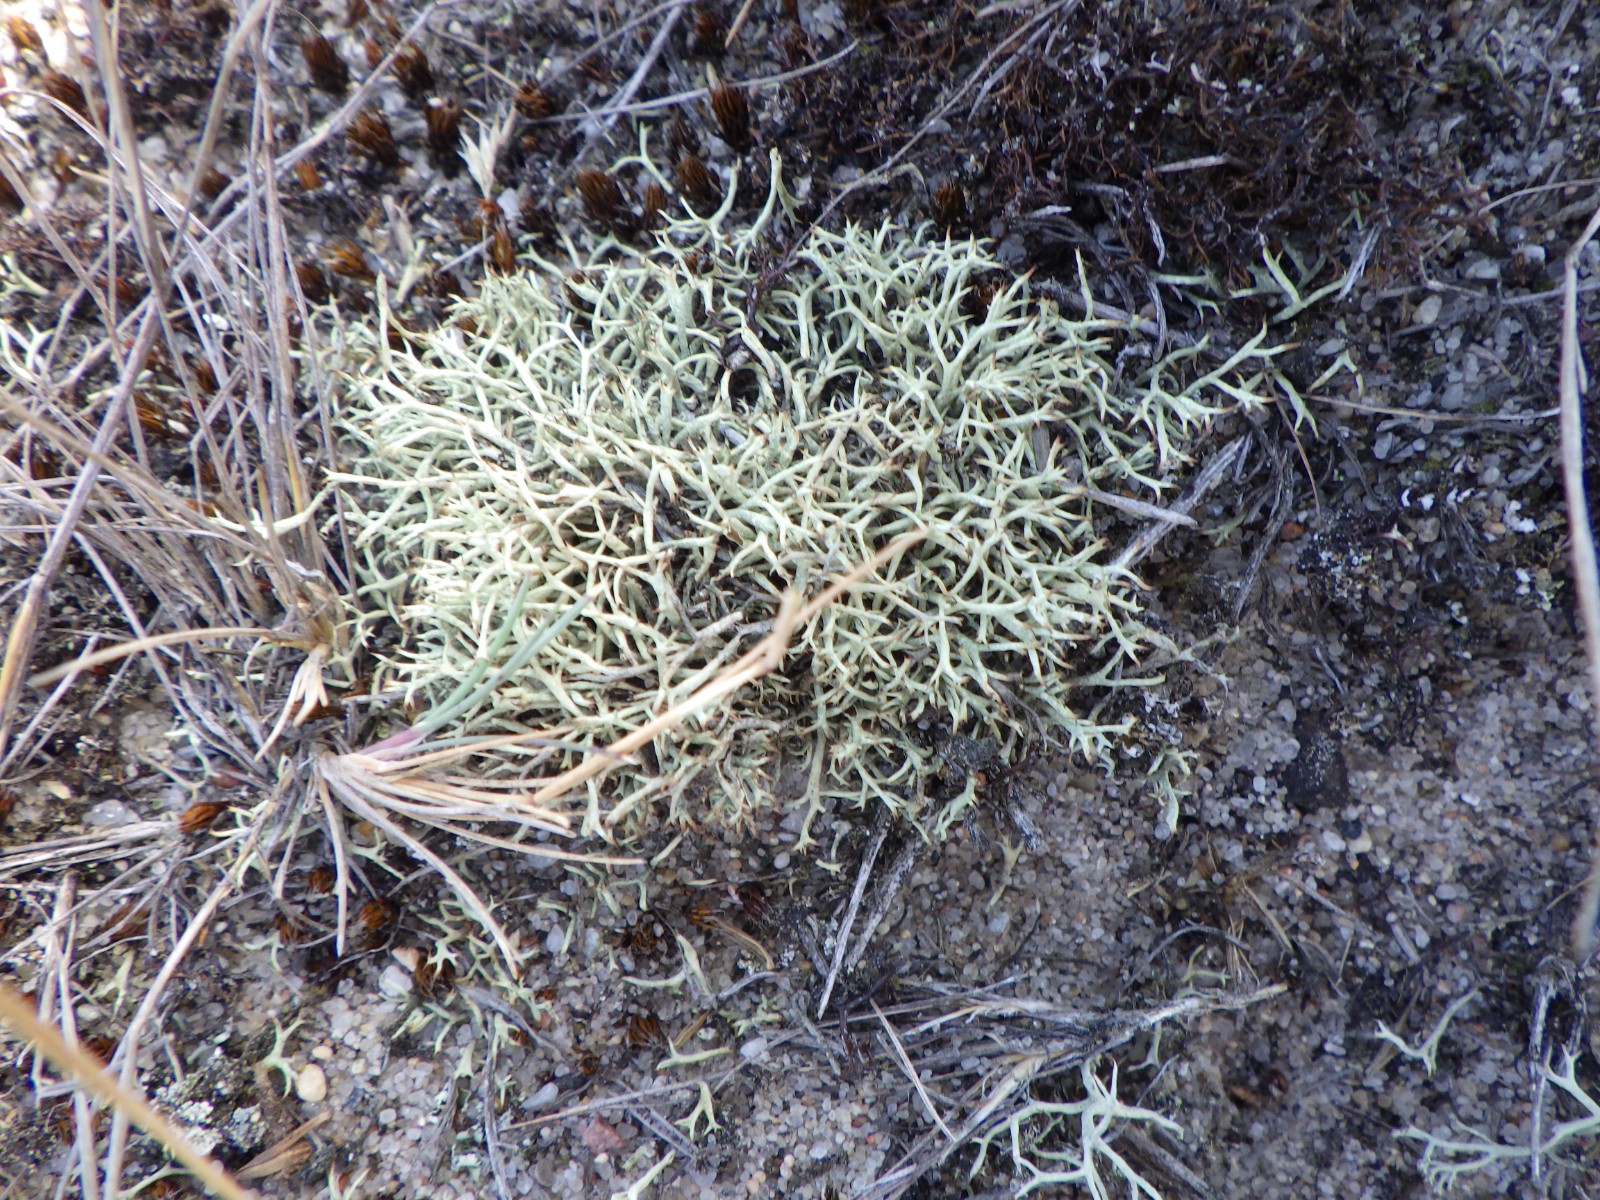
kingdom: Fungi
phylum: Ascomycota
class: Lecanoromycetes
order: Lecanorales
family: Cladoniaceae
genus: Cladonia
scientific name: Cladonia zopfii
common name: klit-bægerlav
